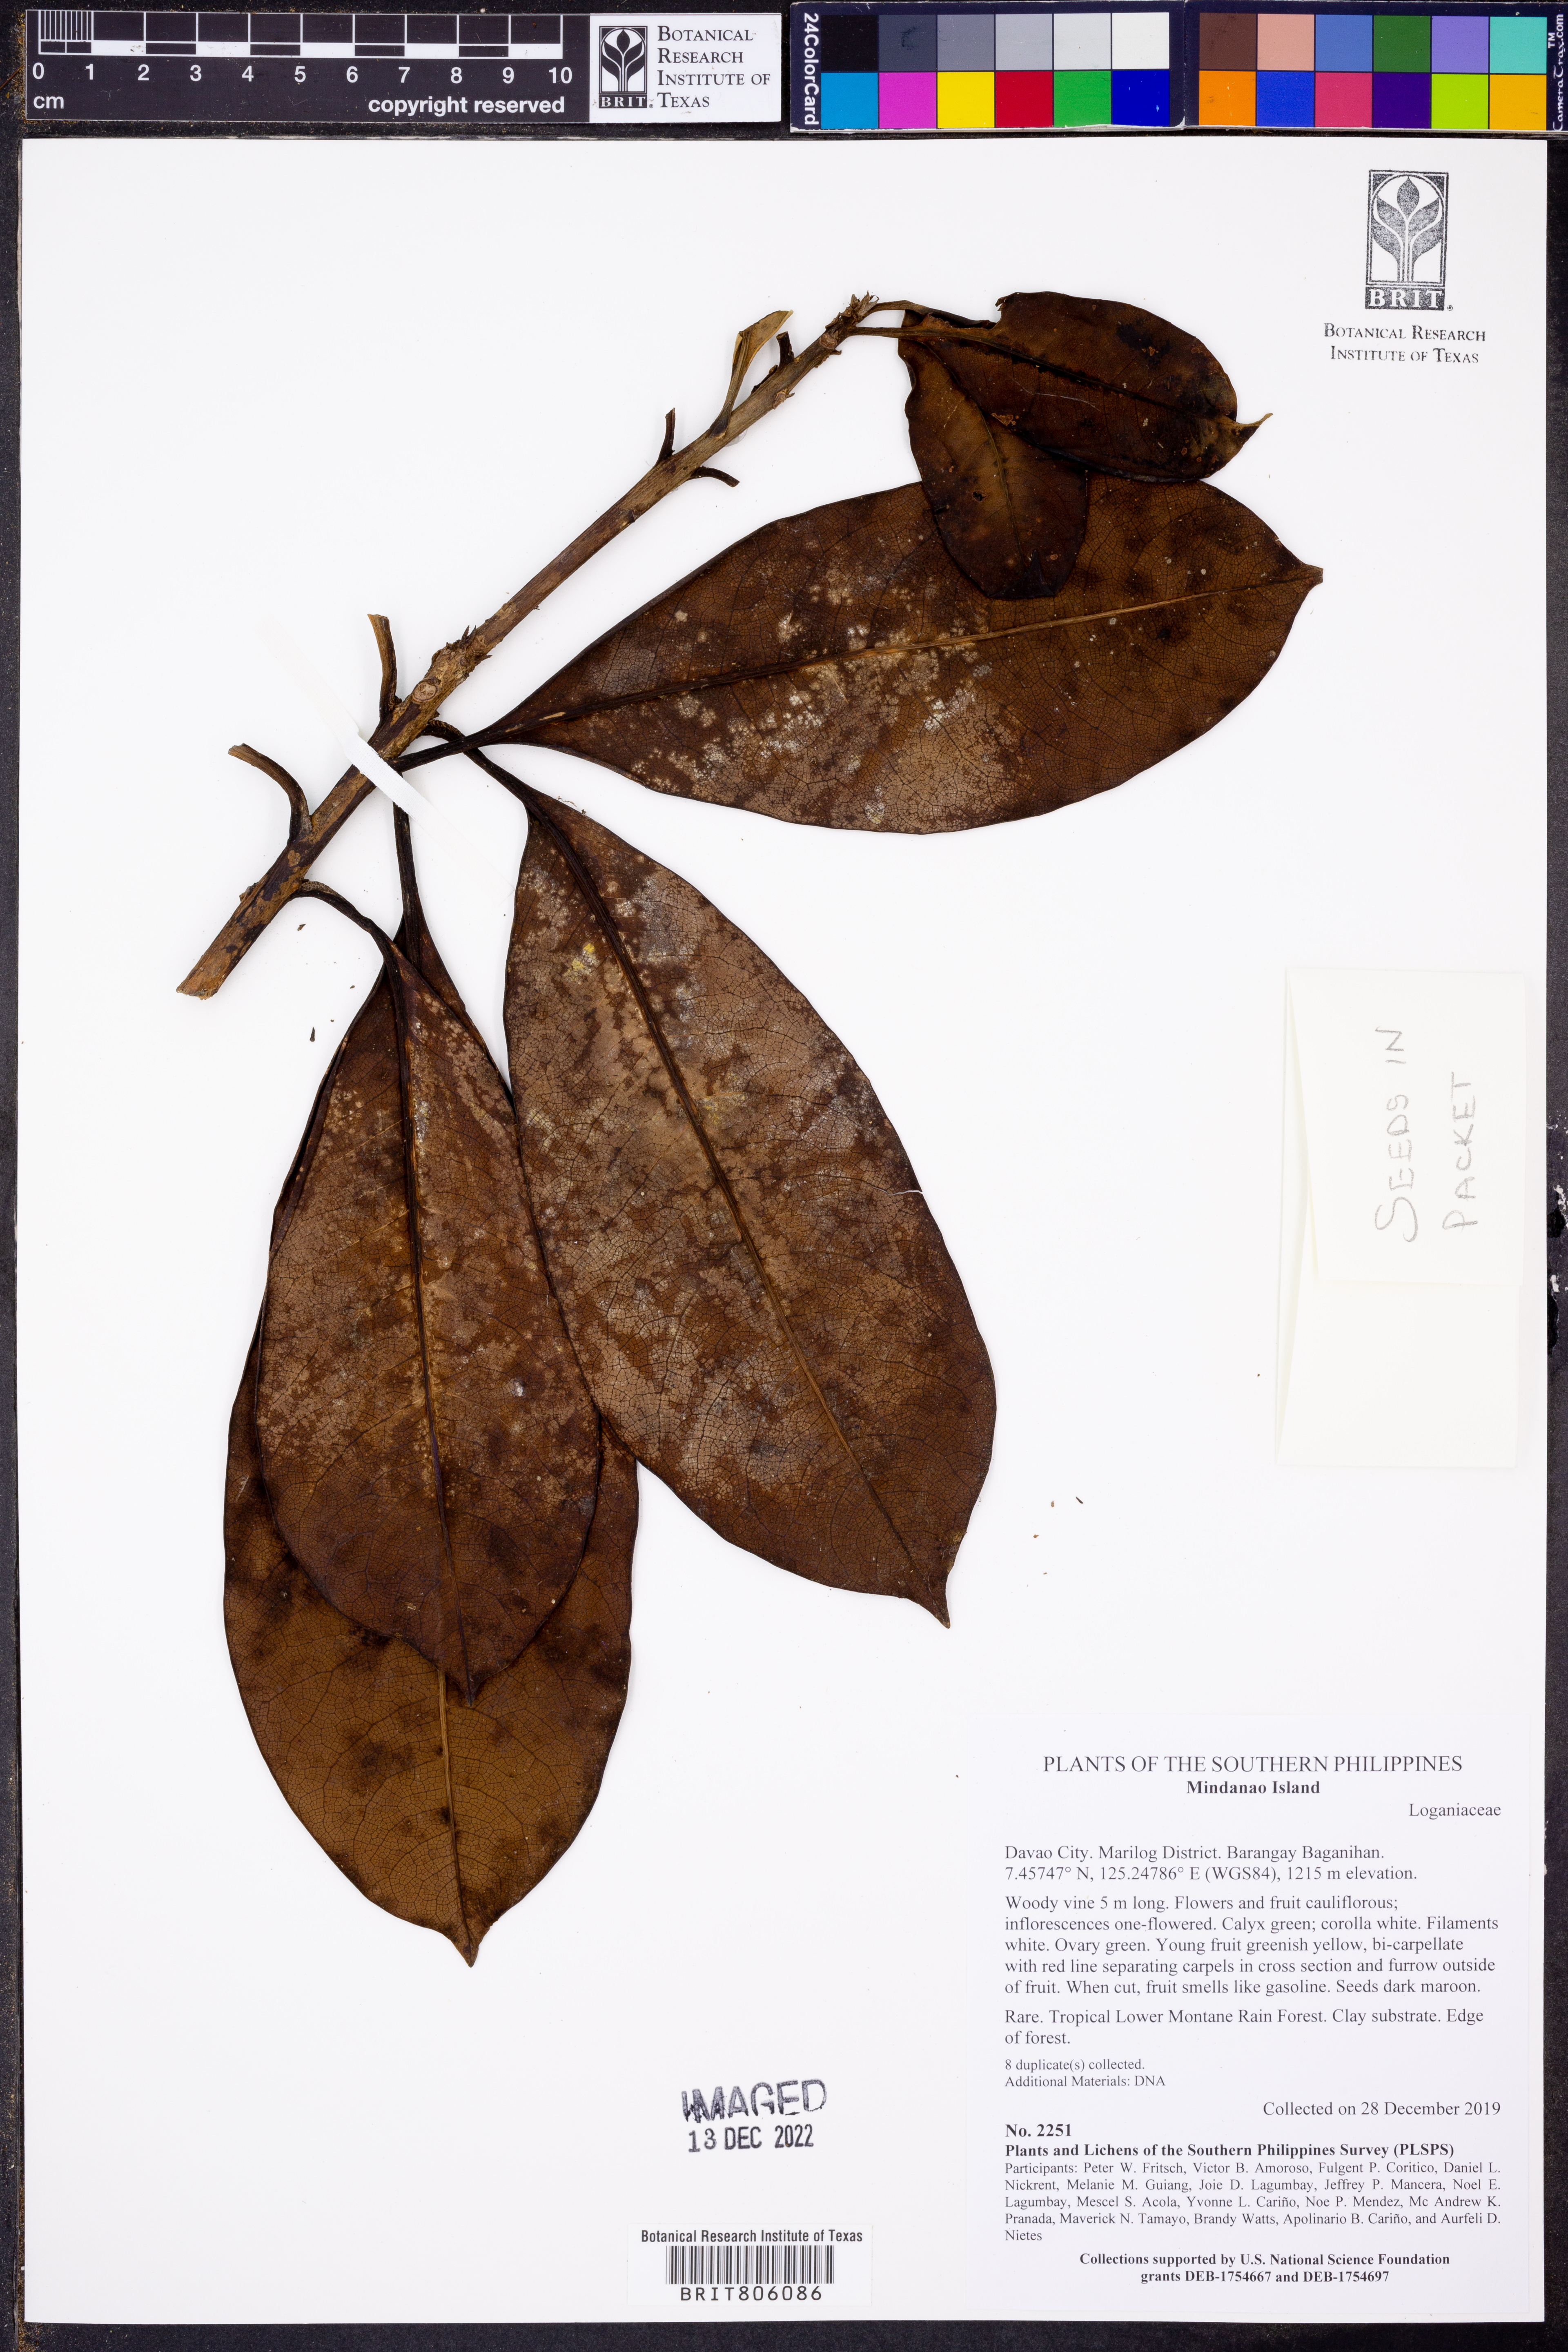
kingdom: Plantae
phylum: Tracheophyta
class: Magnoliopsida
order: Gentianales
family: Loganiaceae
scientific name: Loganiaceae
